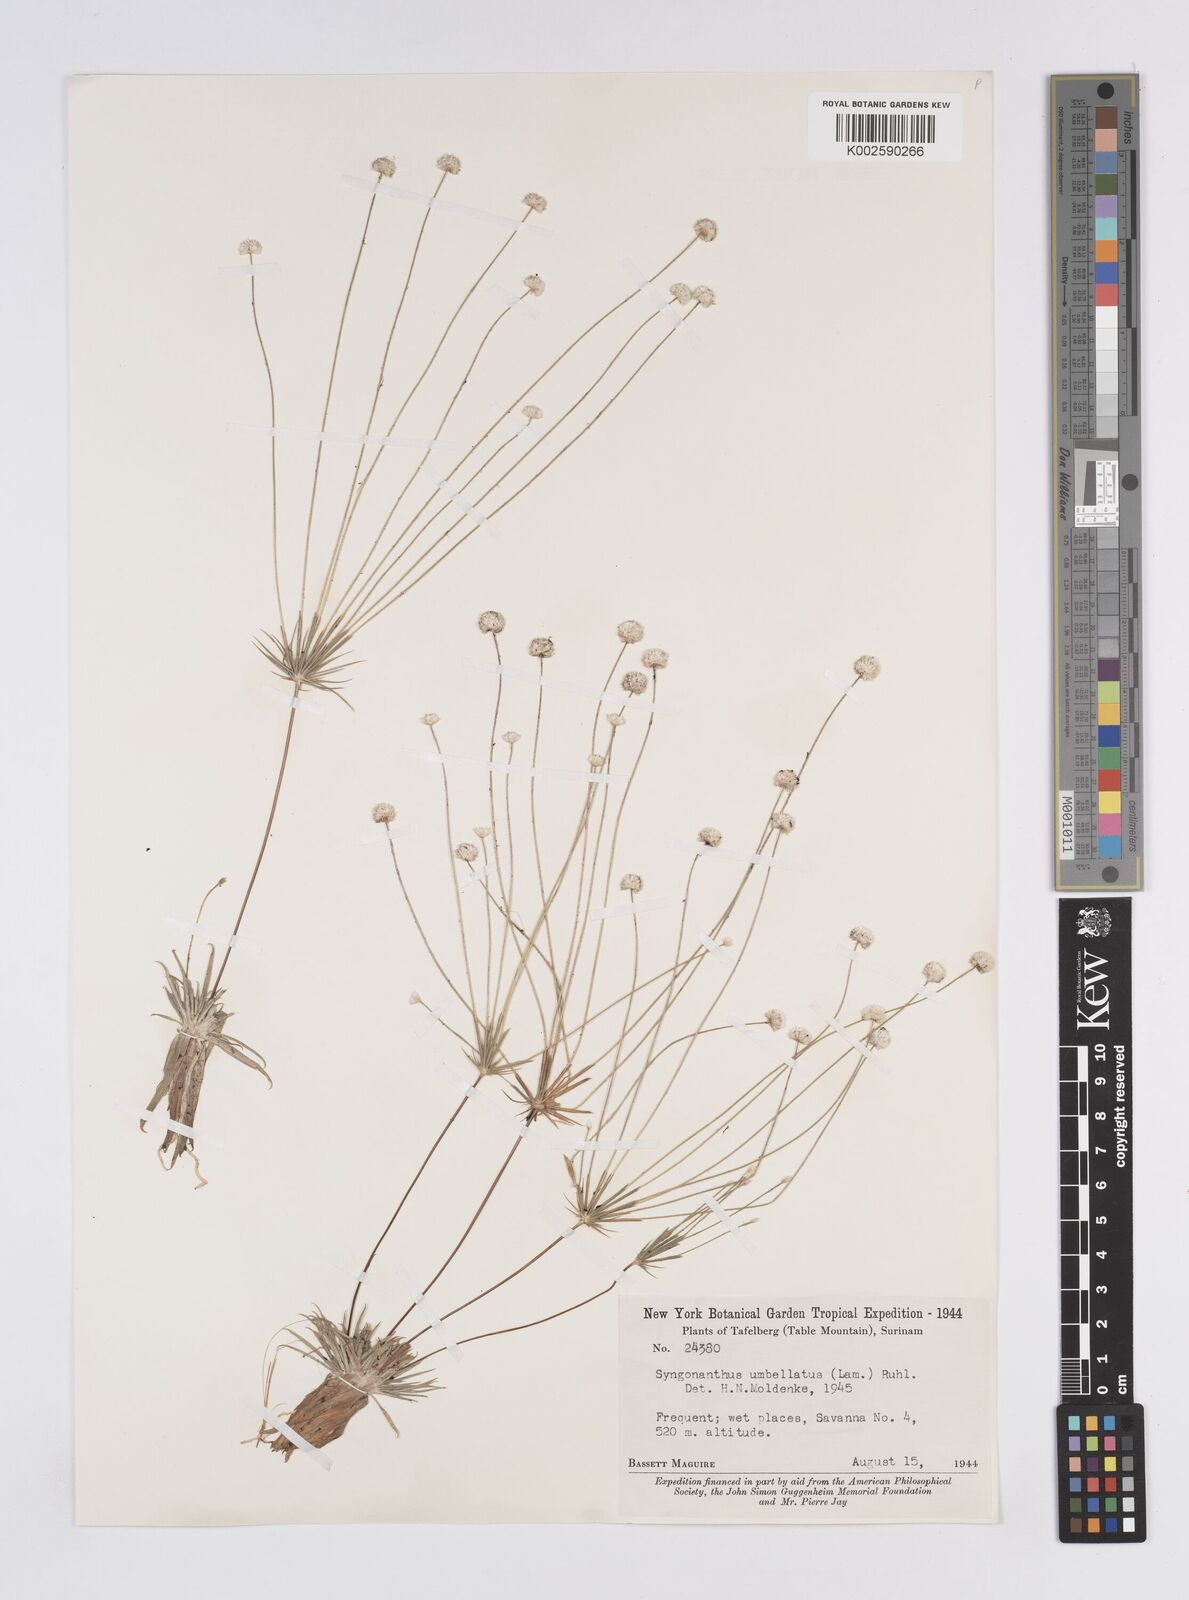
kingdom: Plantae
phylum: Tracheophyta
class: Liliopsida
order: Poales
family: Eriocaulaceae
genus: Syngonanthus
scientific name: Syngonanthus umbellatus
